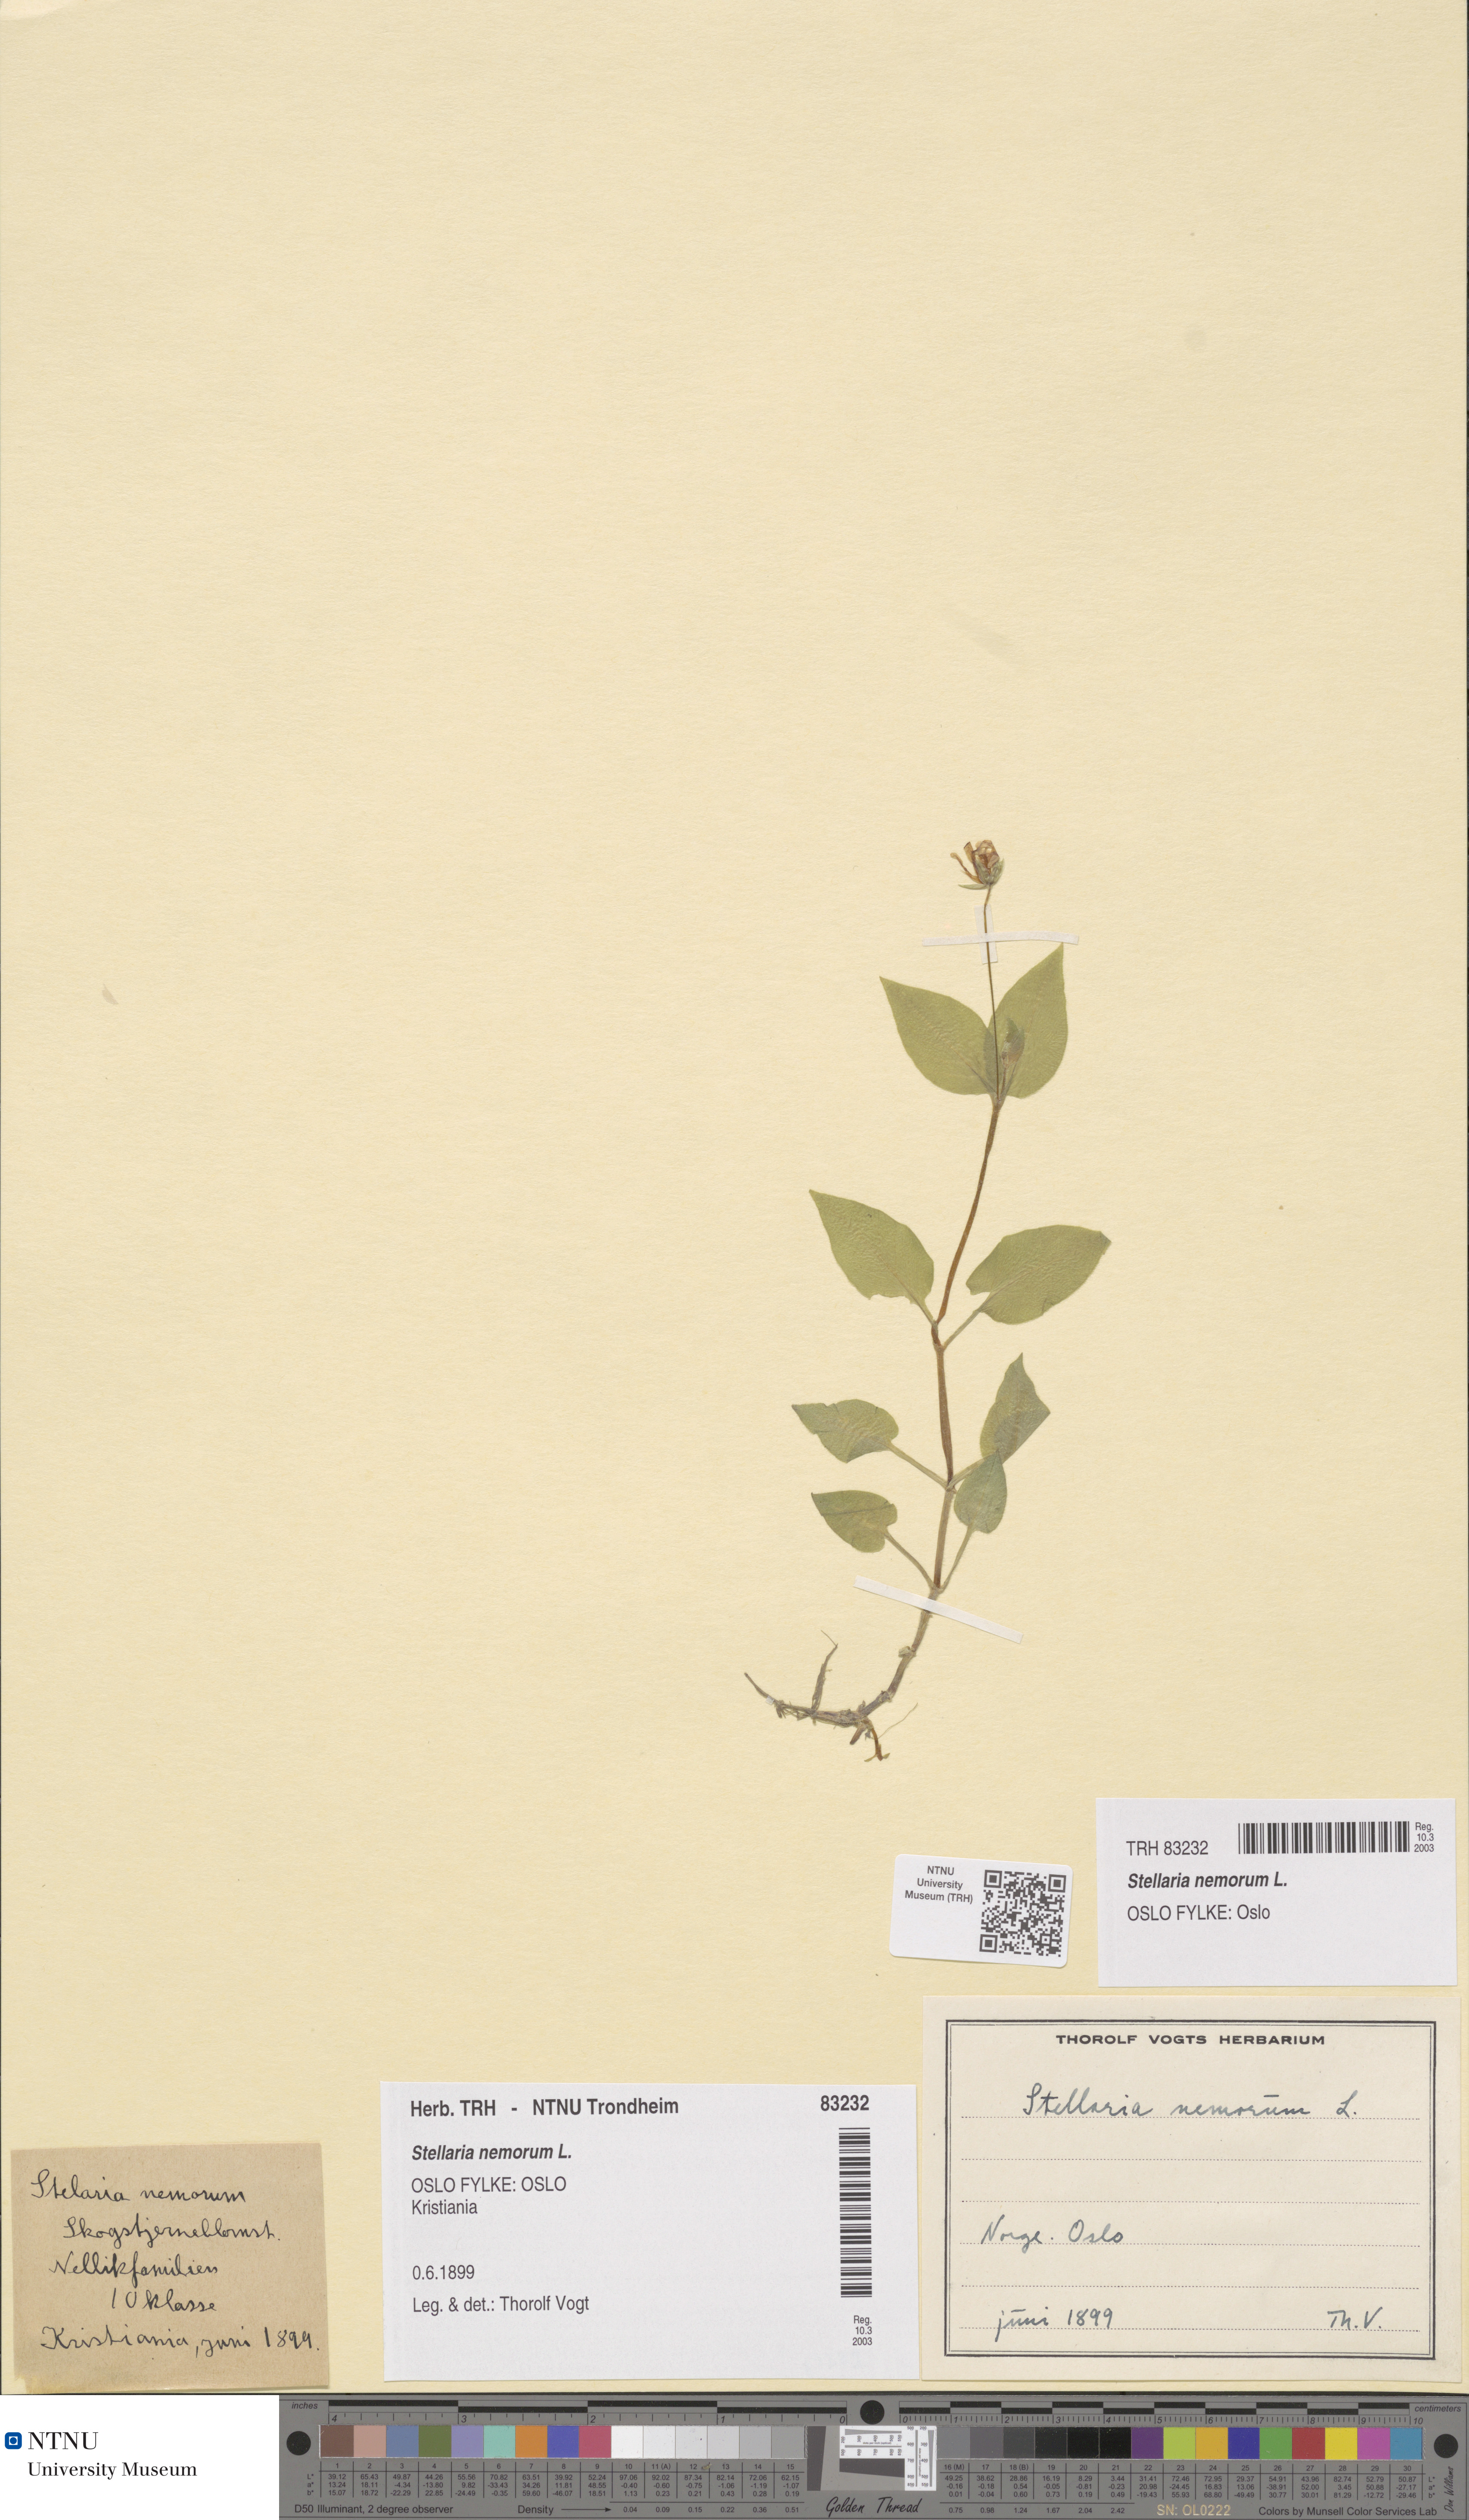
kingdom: Plantae
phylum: Tracheophyta
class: Magnoliopsida
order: Caryophyllales
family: Caryophyllaceae
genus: Stellaria
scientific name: Stellaria nemorum
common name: Wood stitchwort
